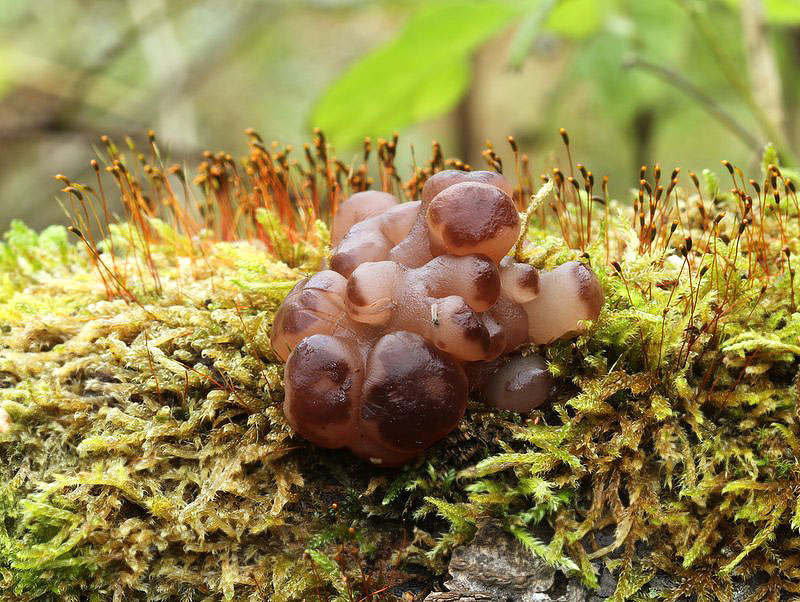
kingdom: Fungi
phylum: Ascomycota
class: Leotiomycetes
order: Helotiales
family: Gelatinodiscaceae
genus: Neobulgaria
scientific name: Neobulgaria pura
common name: bleg bævreskive
